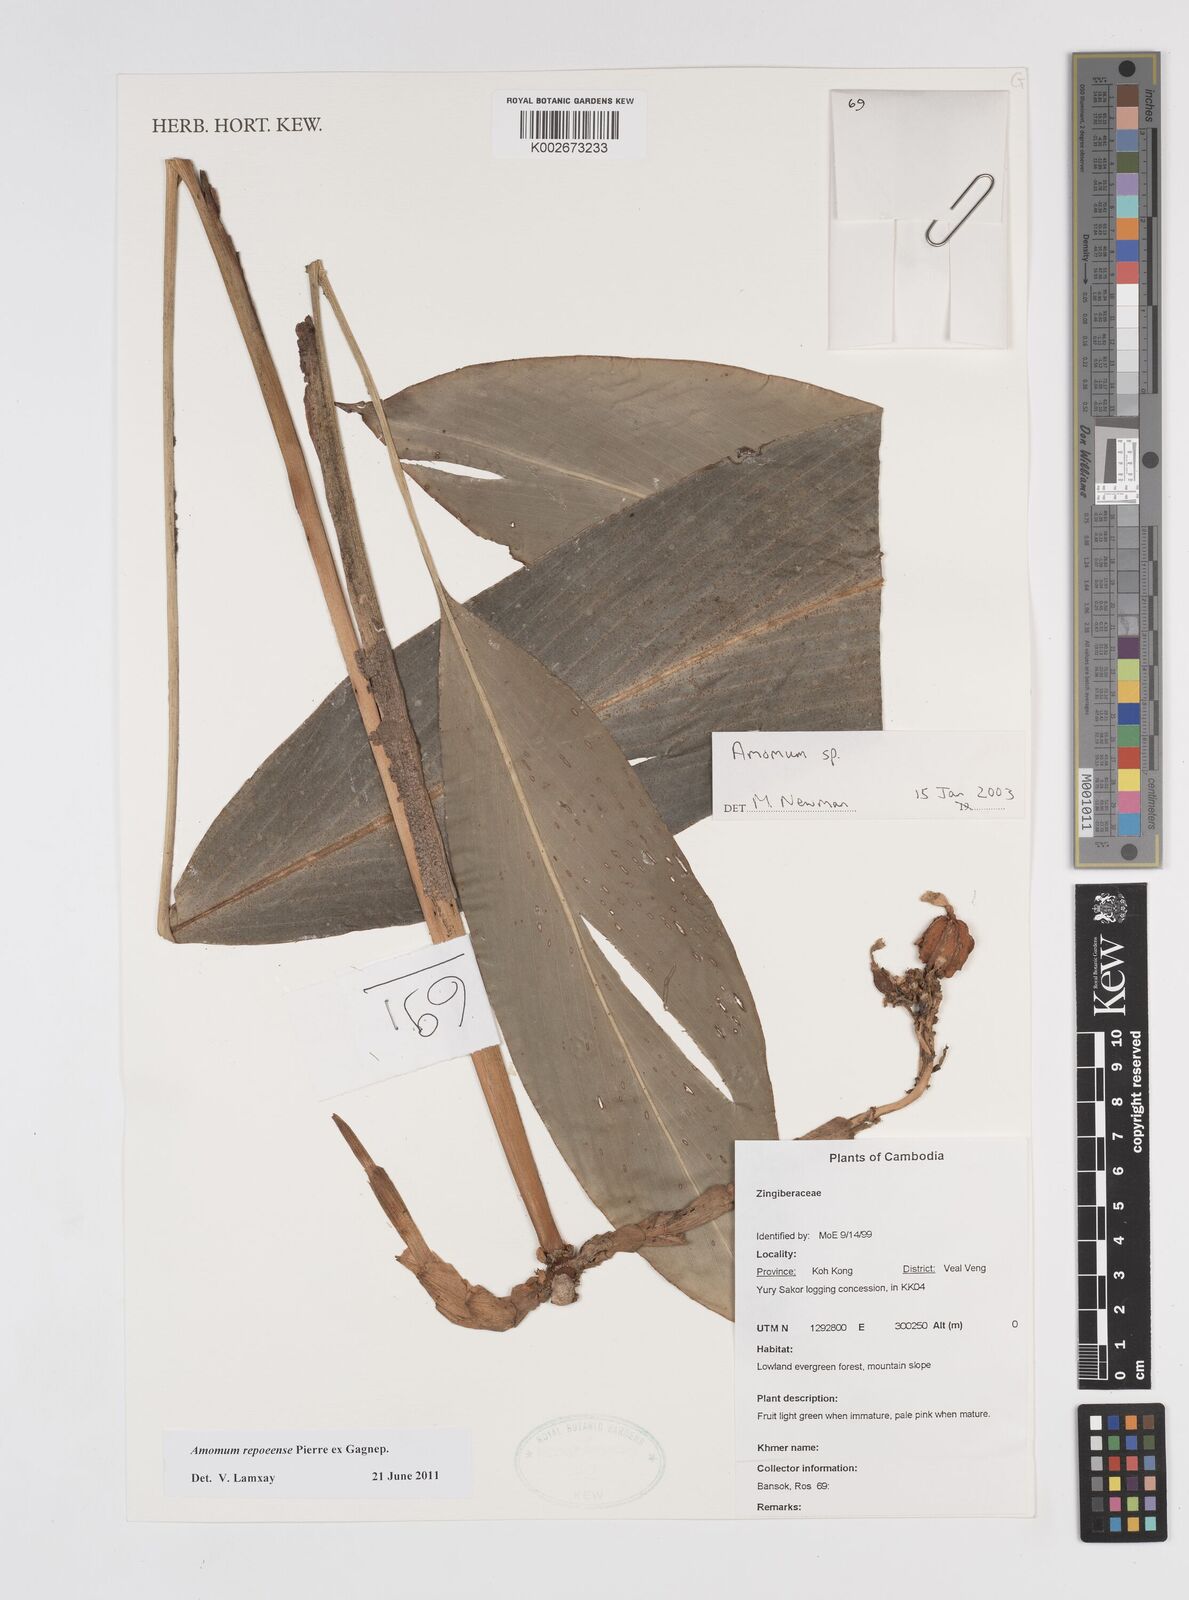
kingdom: Plantae
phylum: Tracheophyta
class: Liliopsida
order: Zingiberales
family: Zingiberaceae
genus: Amomum
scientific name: Amomum repoeense
